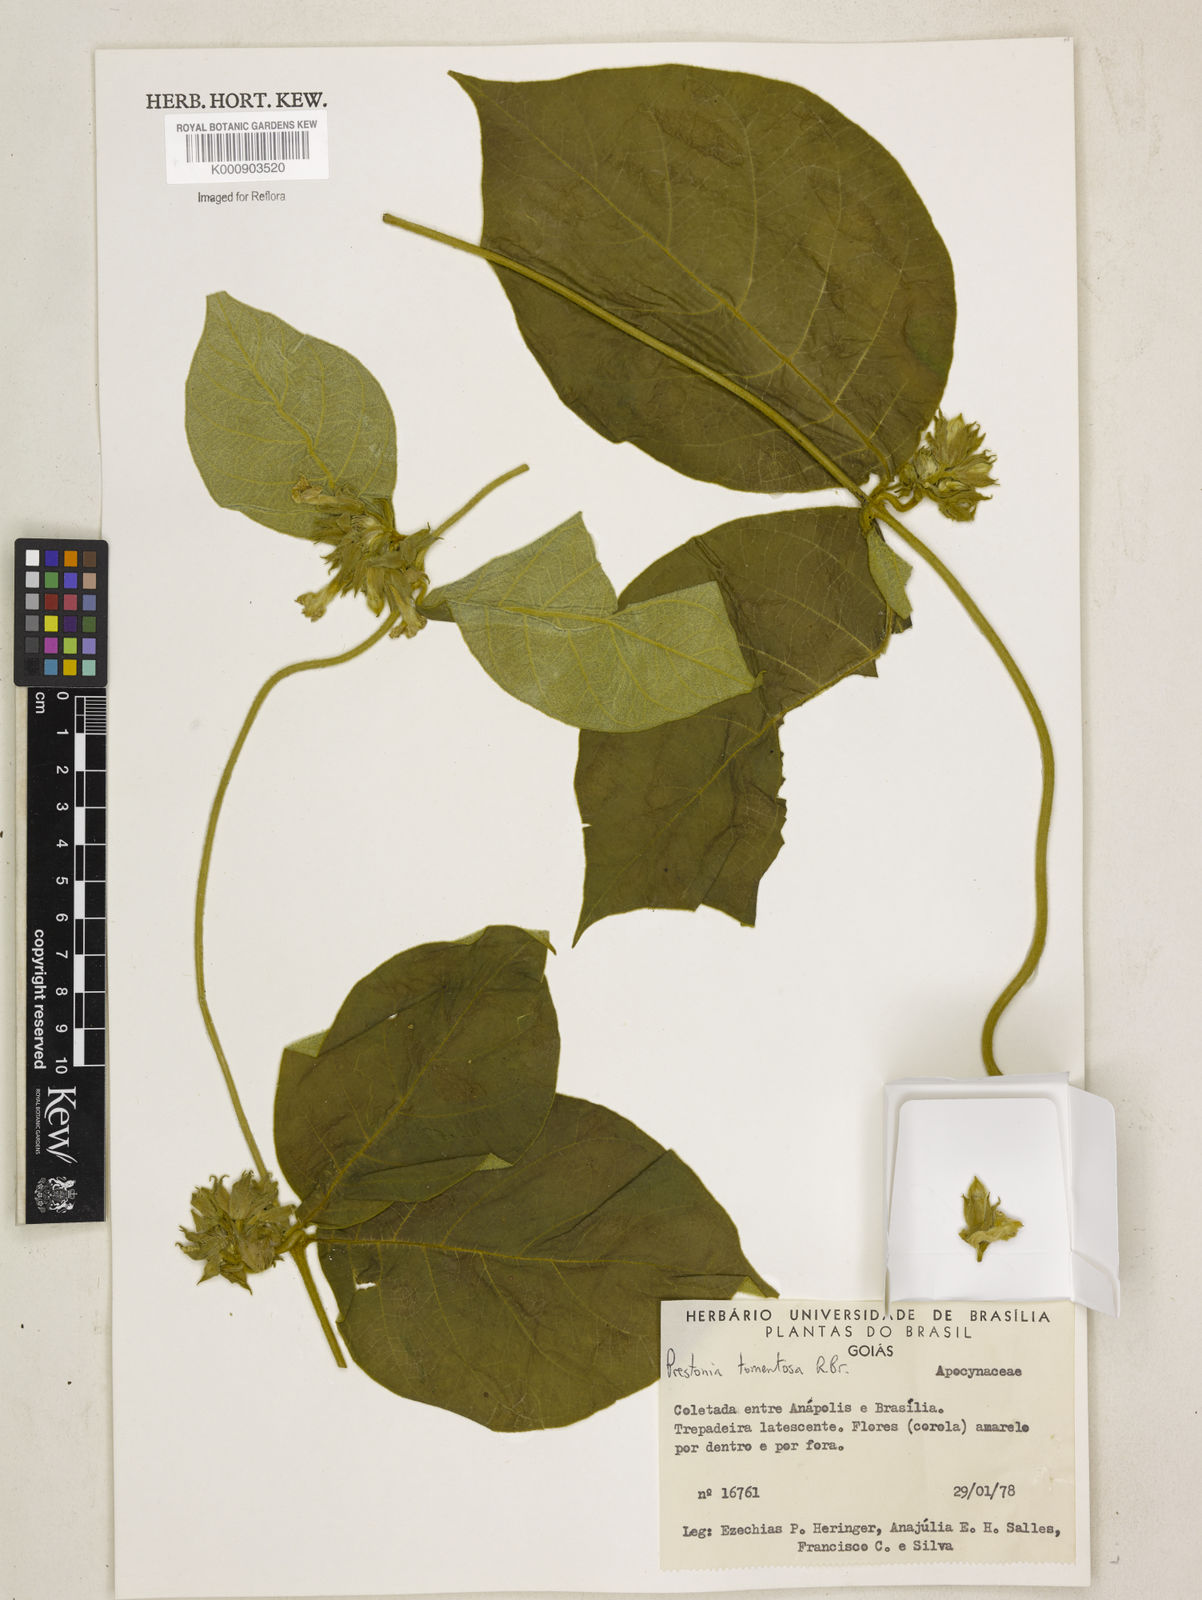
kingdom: Plantae
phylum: Tracheophyta
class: Magnoliopsida
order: Gentianales
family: Apocynaceae
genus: Prestonia
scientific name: Prestonia tomentosa
